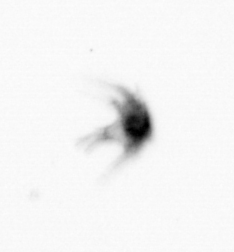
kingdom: Animalia
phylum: Arthropoda
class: Copepoda
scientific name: Copepoda
